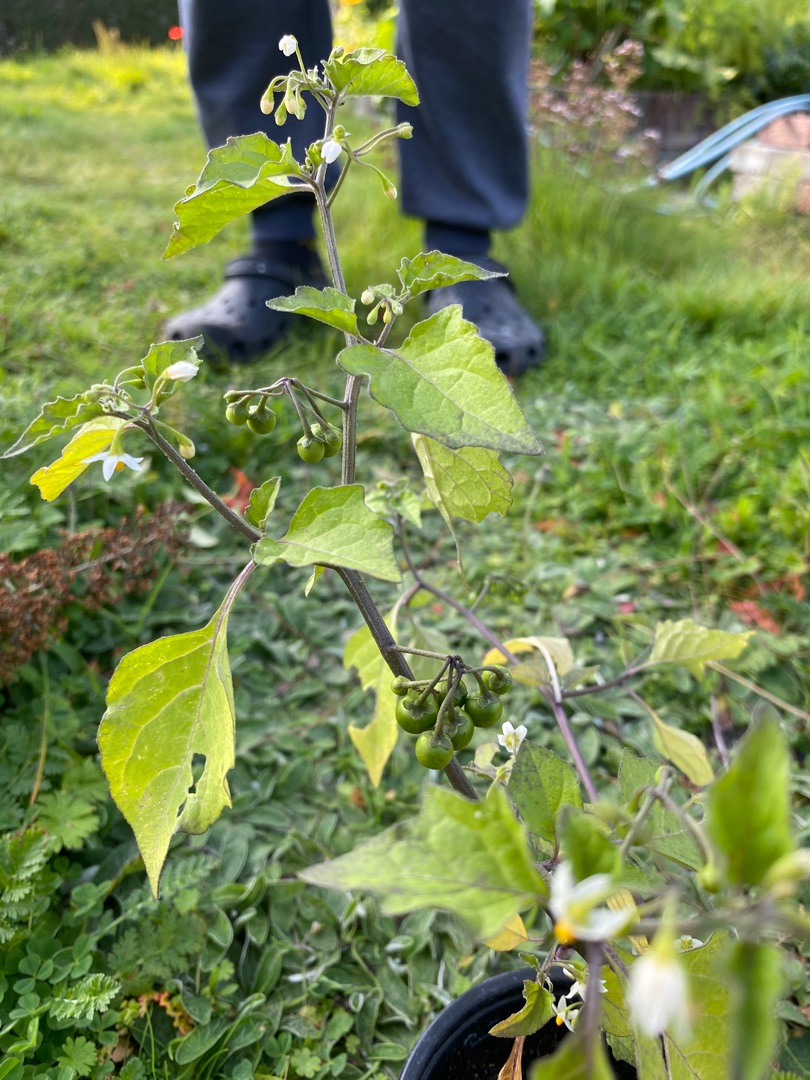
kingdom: Plantae
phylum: Tracheophyta
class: Magnoliopsida
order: Solanales
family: Solanaceae
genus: Solanum
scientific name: Solanum nigrum
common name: Sort natskygge
